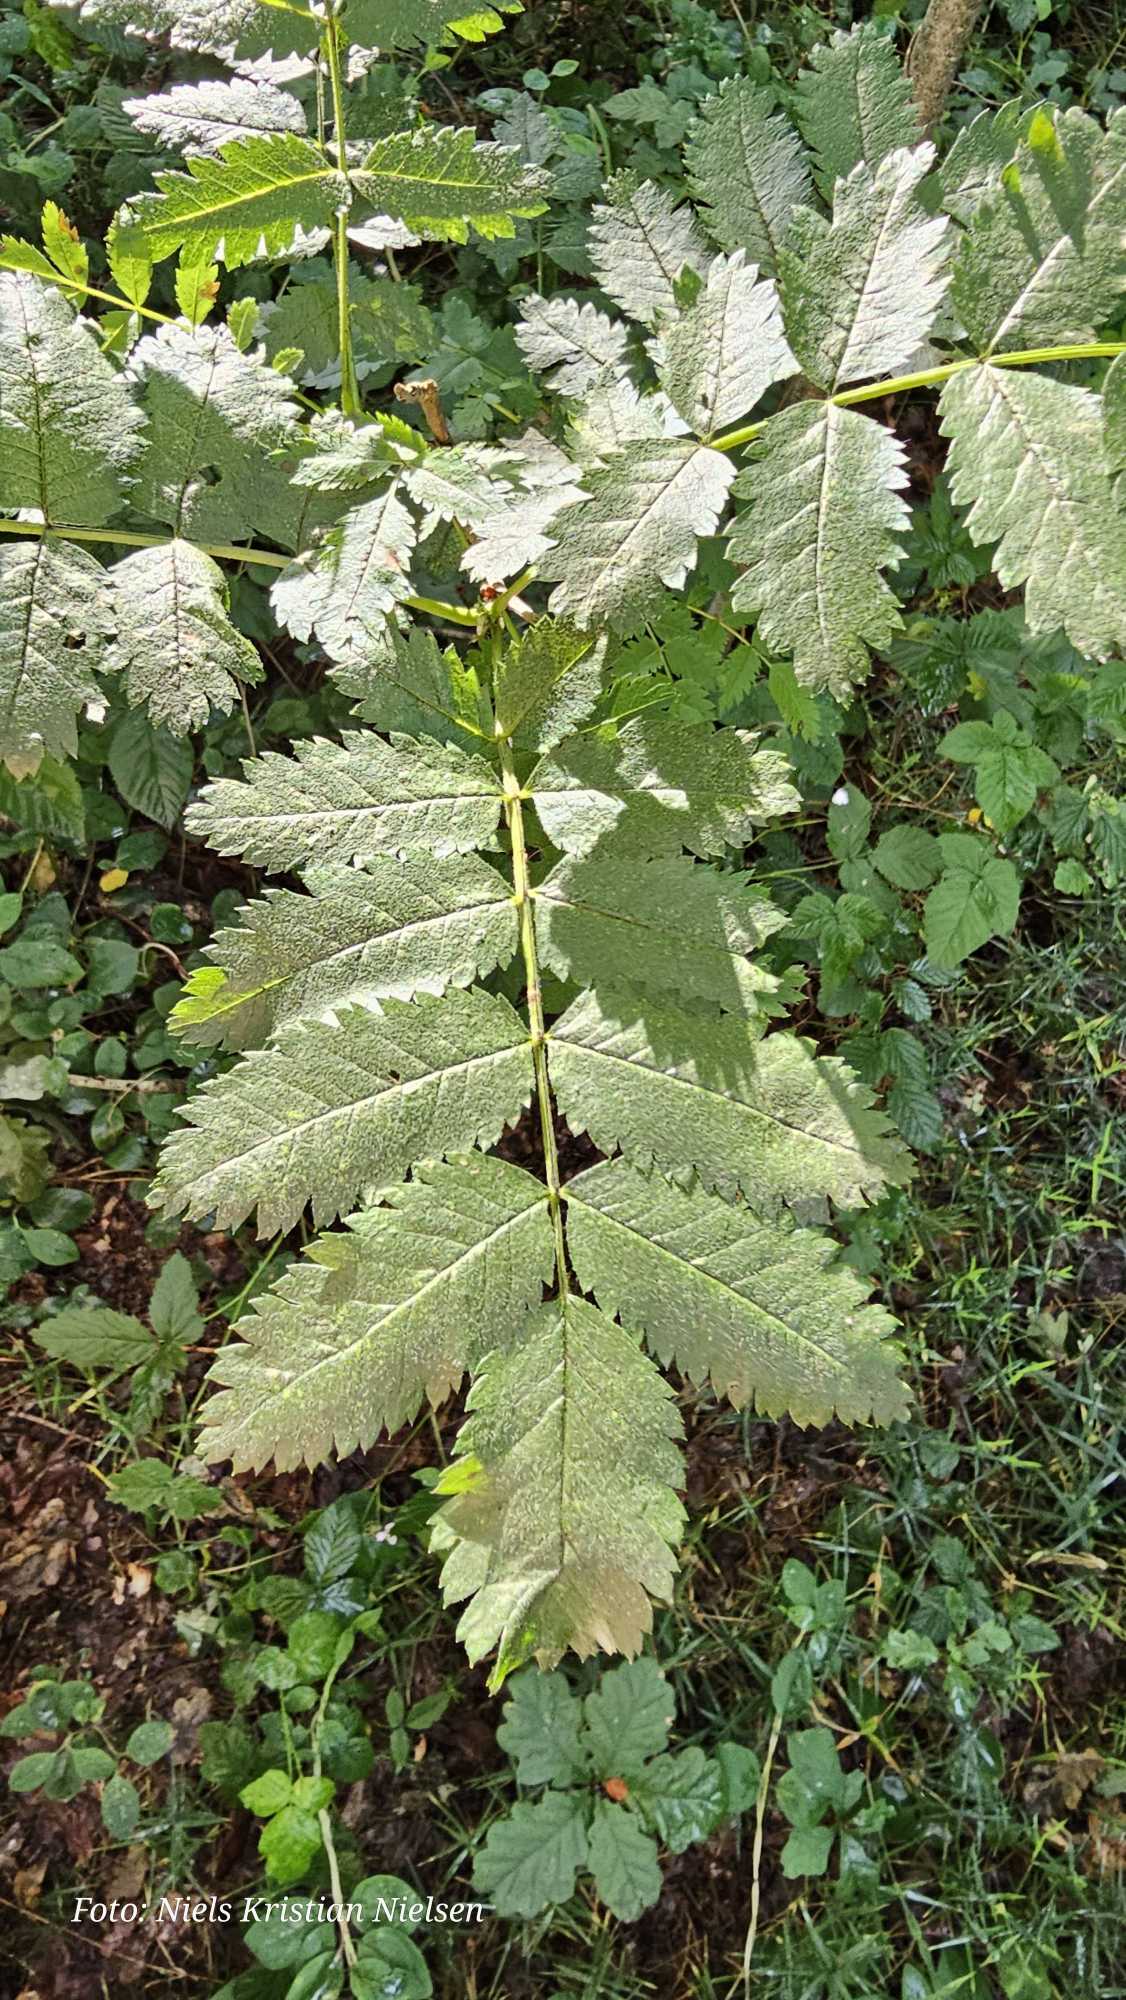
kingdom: Plantae
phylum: Tracheophyta
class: Magnoliopsida
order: Rosales
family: Rosaceae
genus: Sorbus
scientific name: Sorbus aucuparia
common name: Almindelig røn
